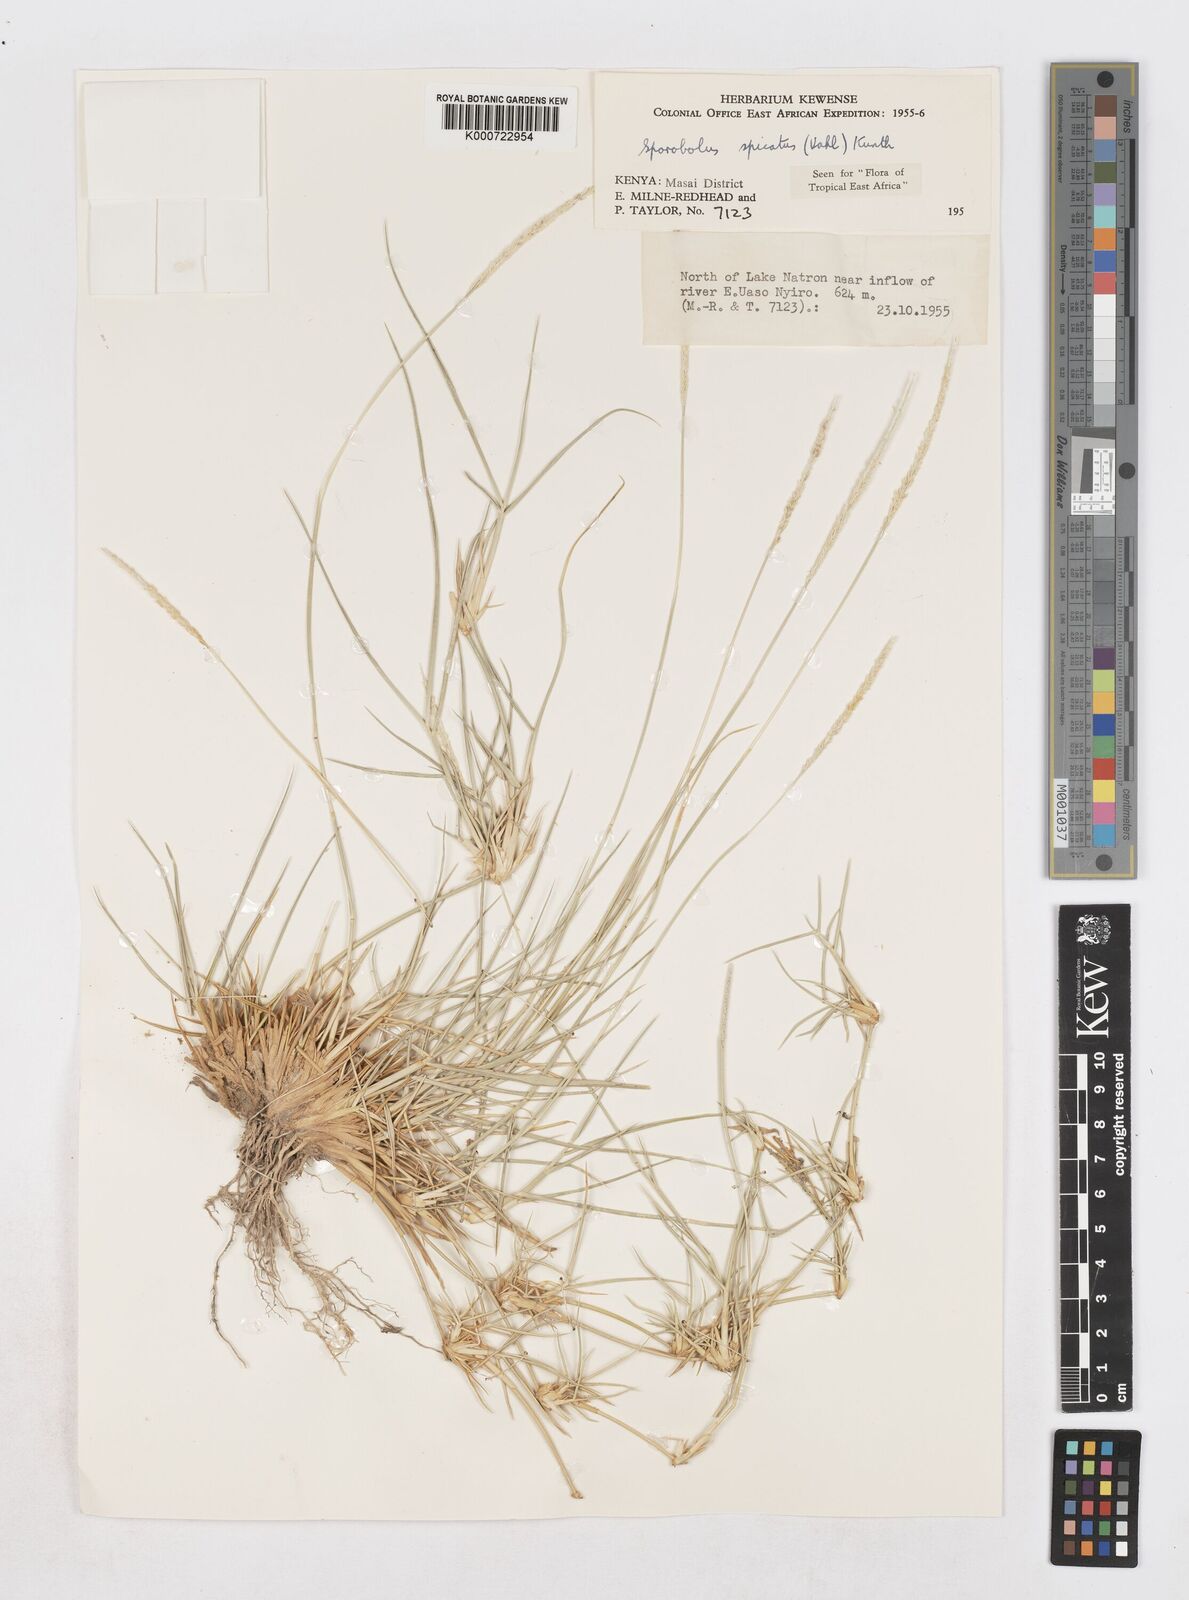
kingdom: Plantae
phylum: Tracheophyta
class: Liliopsida
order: Poales
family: Poaceae
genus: Sporobolus
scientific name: Sporobolus spicatus
